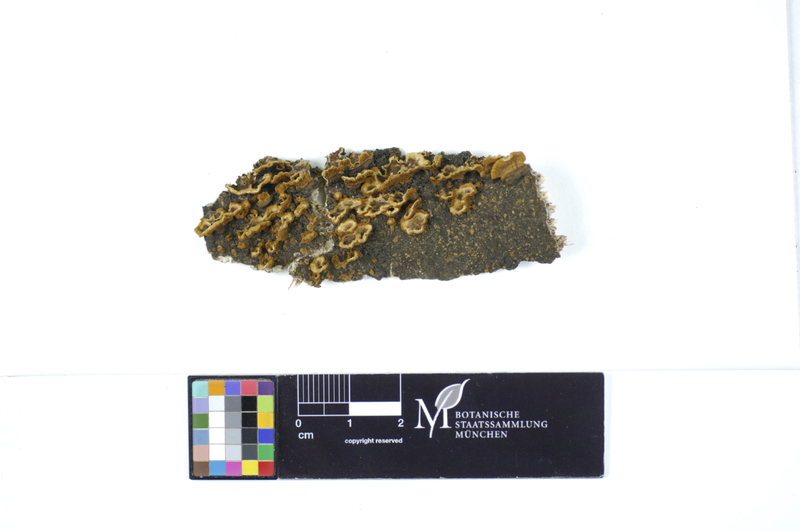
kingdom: Plantae
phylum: Tracheophyta
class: Magnoliopsida
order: Malpighiales
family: Salicaceae
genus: Salix
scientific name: Salix
